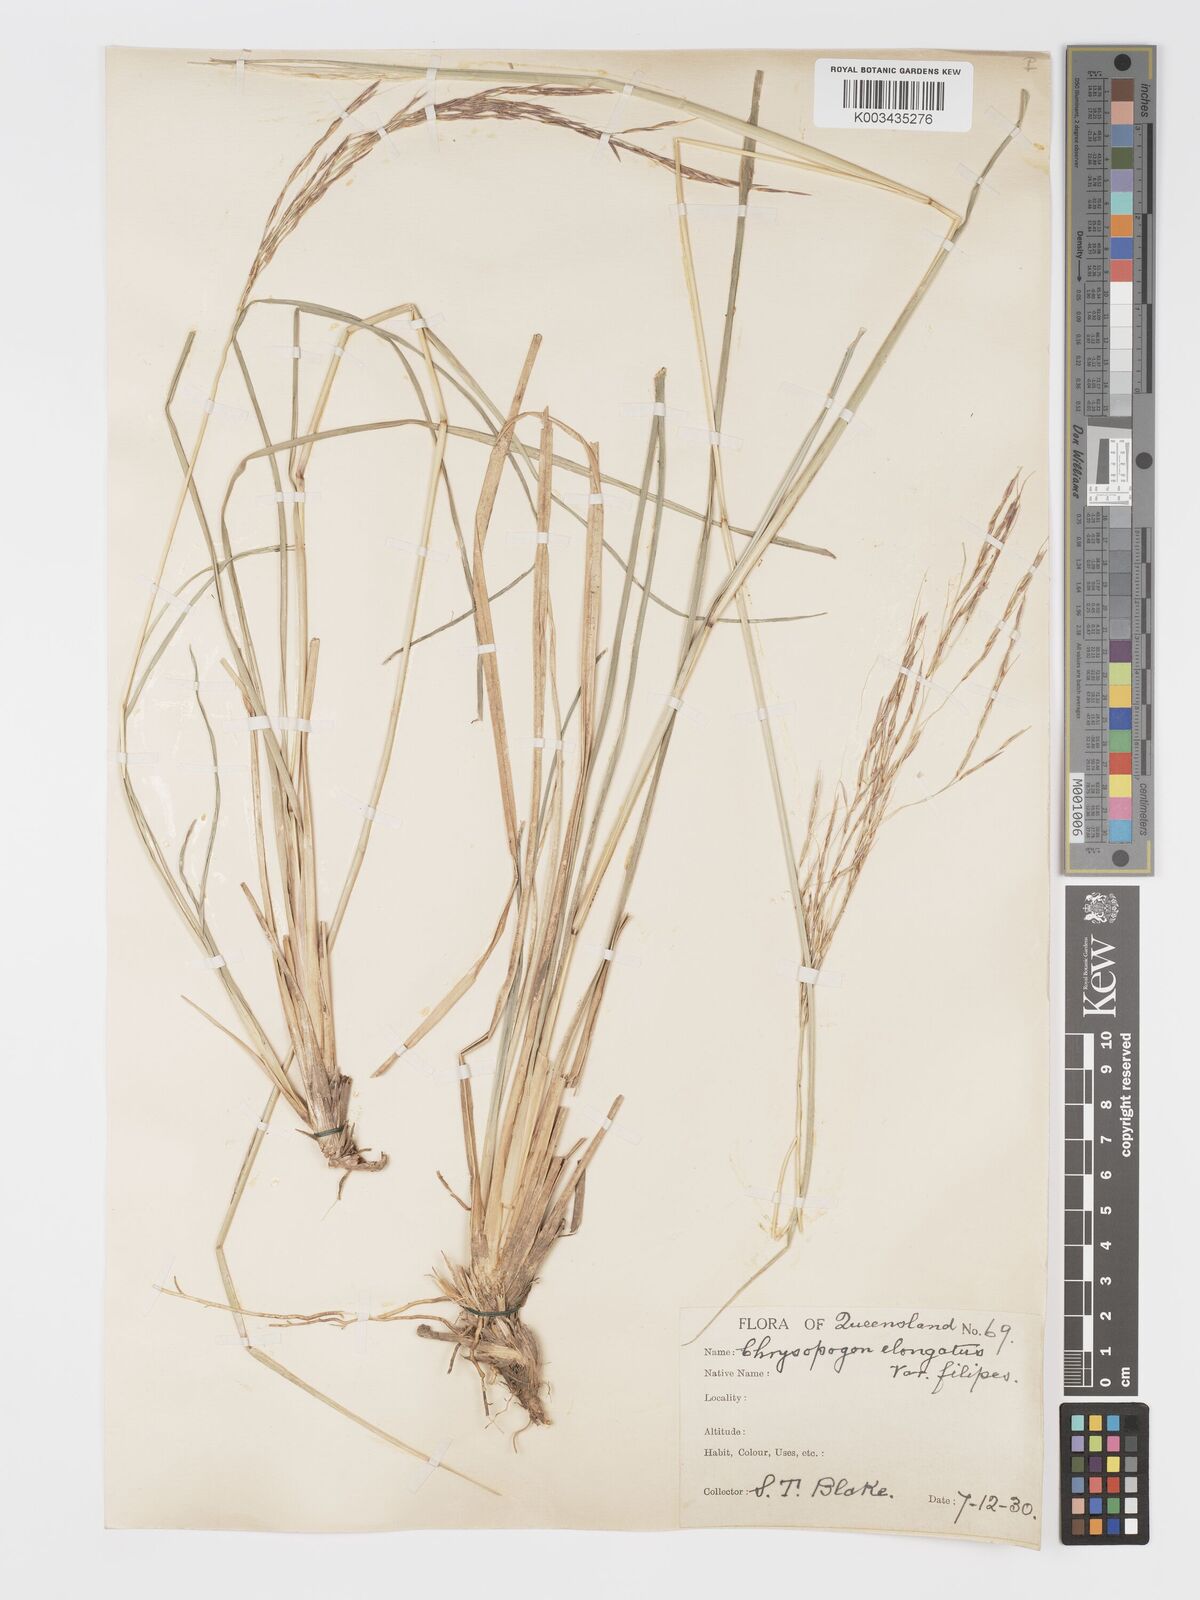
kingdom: Plantae
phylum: Tracheophyta
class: Liliopsida
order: Poales
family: Poaceae
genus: Chrysopogon
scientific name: Chrysopogon filipes
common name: Australian vetiver
